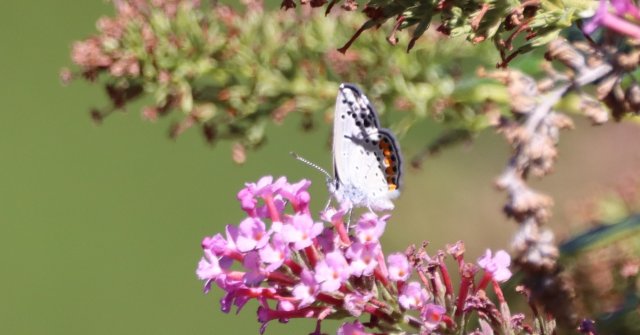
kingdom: Animalia
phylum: Arthropoda
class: Insecta
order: Lepidoptera
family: Lycaenidae
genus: Plebejus
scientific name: Plebejus acmon
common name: Acmon Blue
